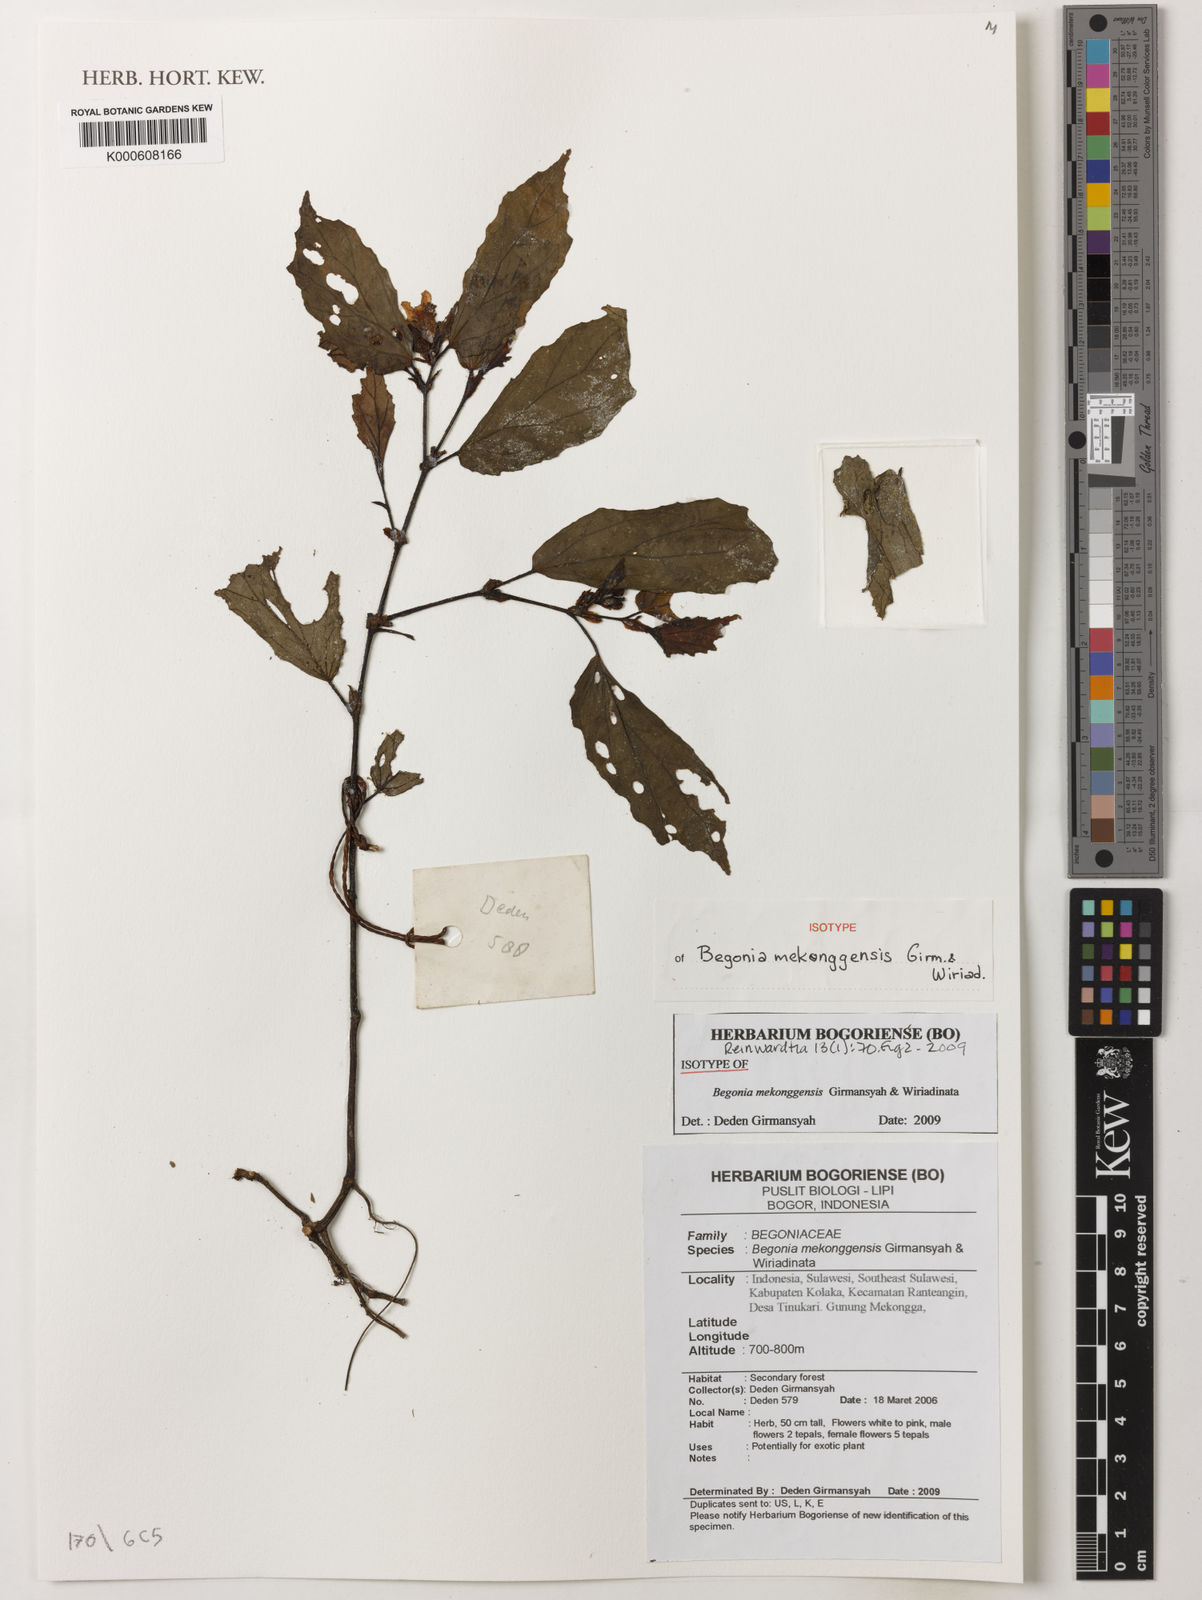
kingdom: Plantae
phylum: Tracheophyta
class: Magnoliopsida
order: Cucurbitales
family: Begoniaceae
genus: Begonia
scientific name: Begonia mekonggensis
